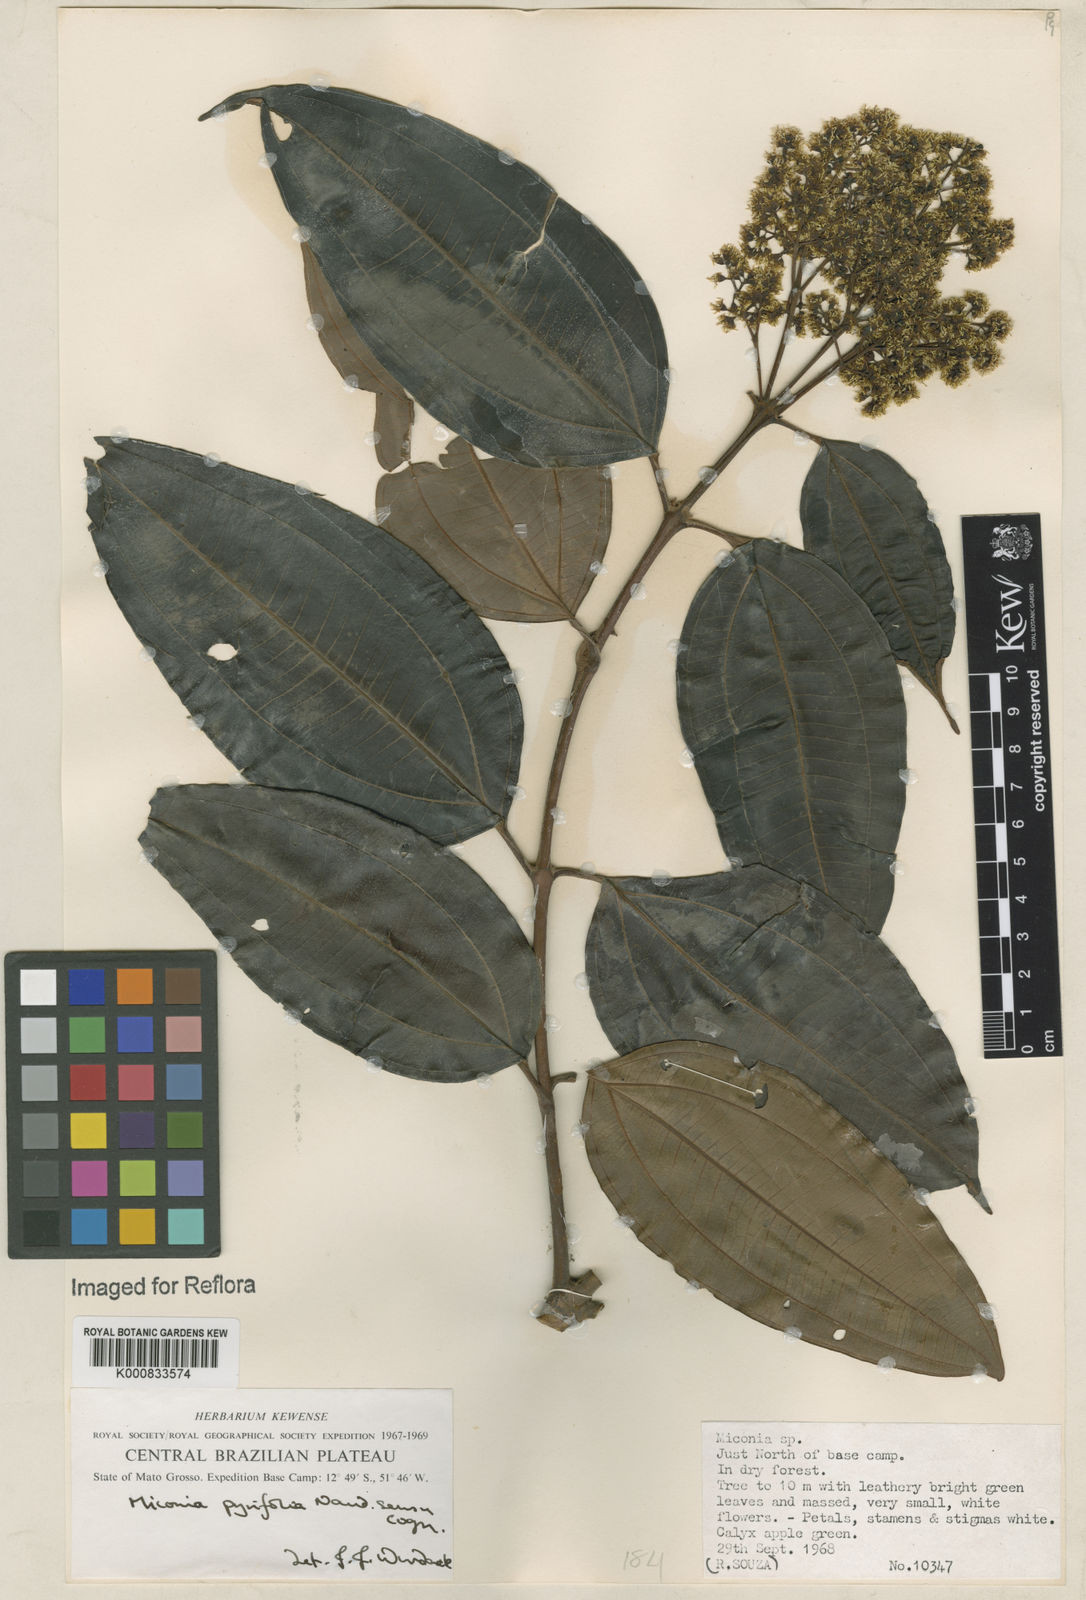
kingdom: Plantae
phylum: Tracheophyta
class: Magnoliopsida
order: Myrtales
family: Melastomataceae
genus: Miconia
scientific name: Miconia pyrifolia
